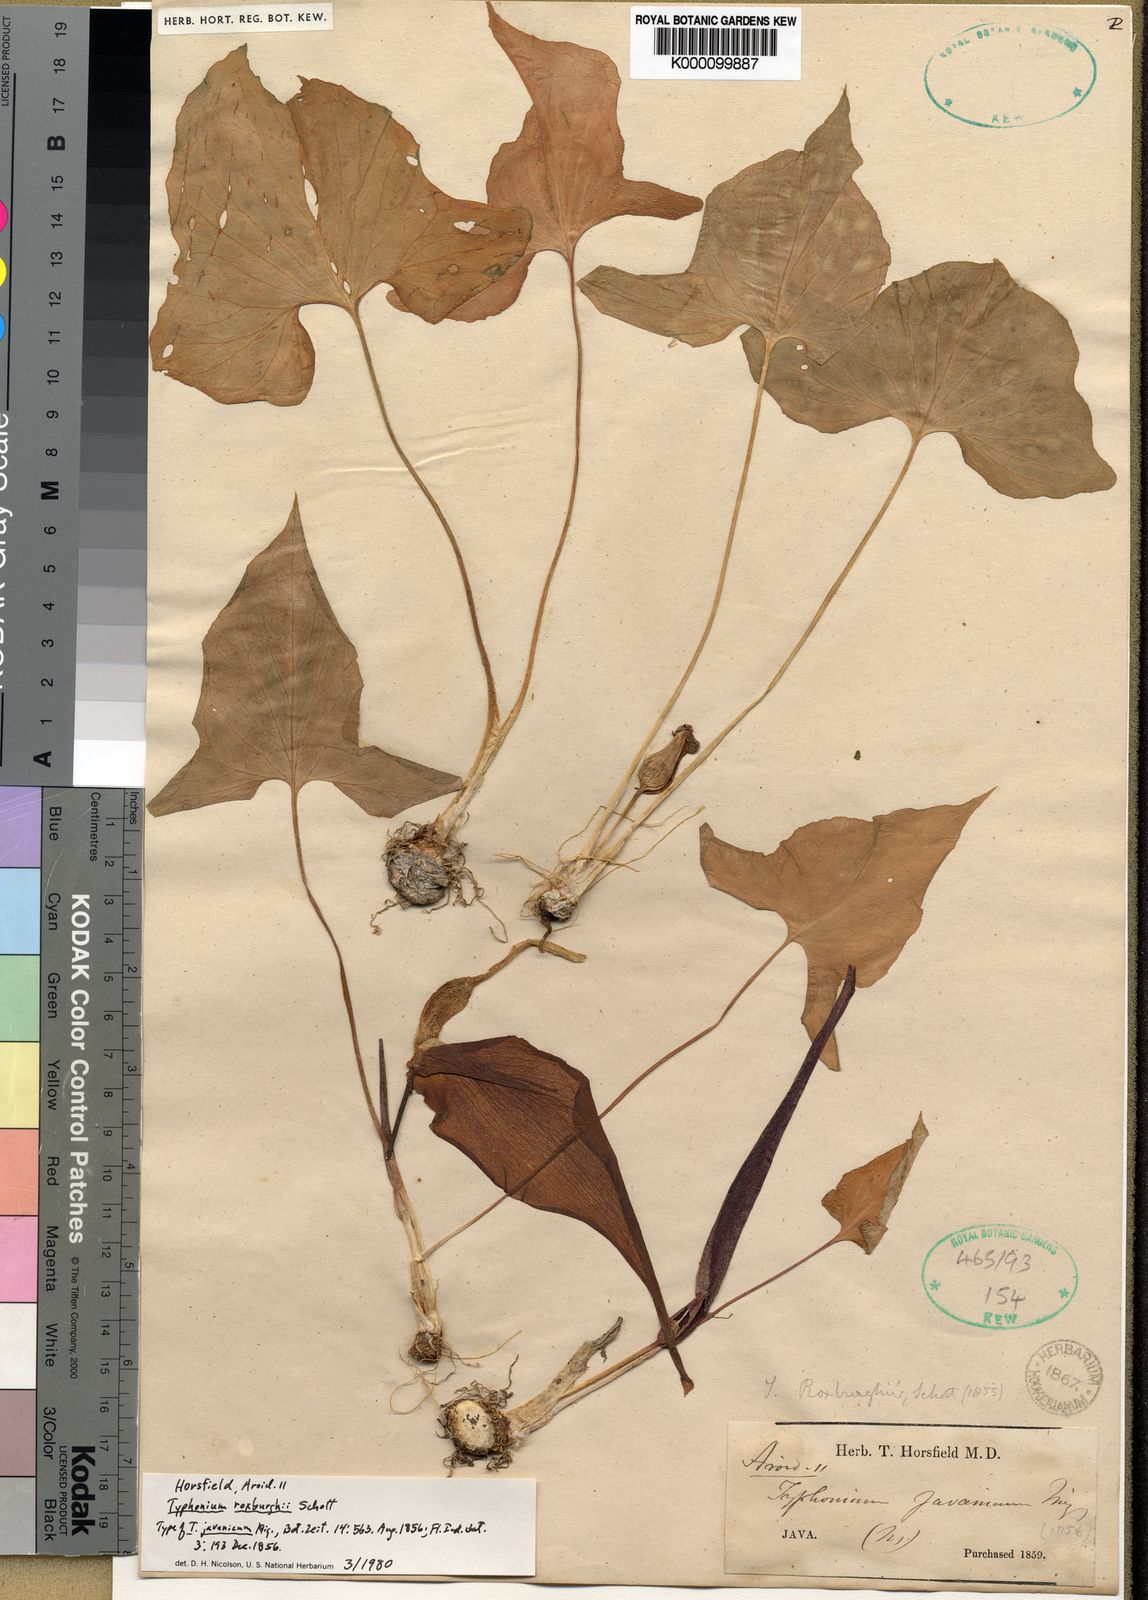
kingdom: Plantae
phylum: Tracheophyta
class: Liliopsida
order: Alismatales
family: Araceae
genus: Typhonium
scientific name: Typhonium roxburghii
